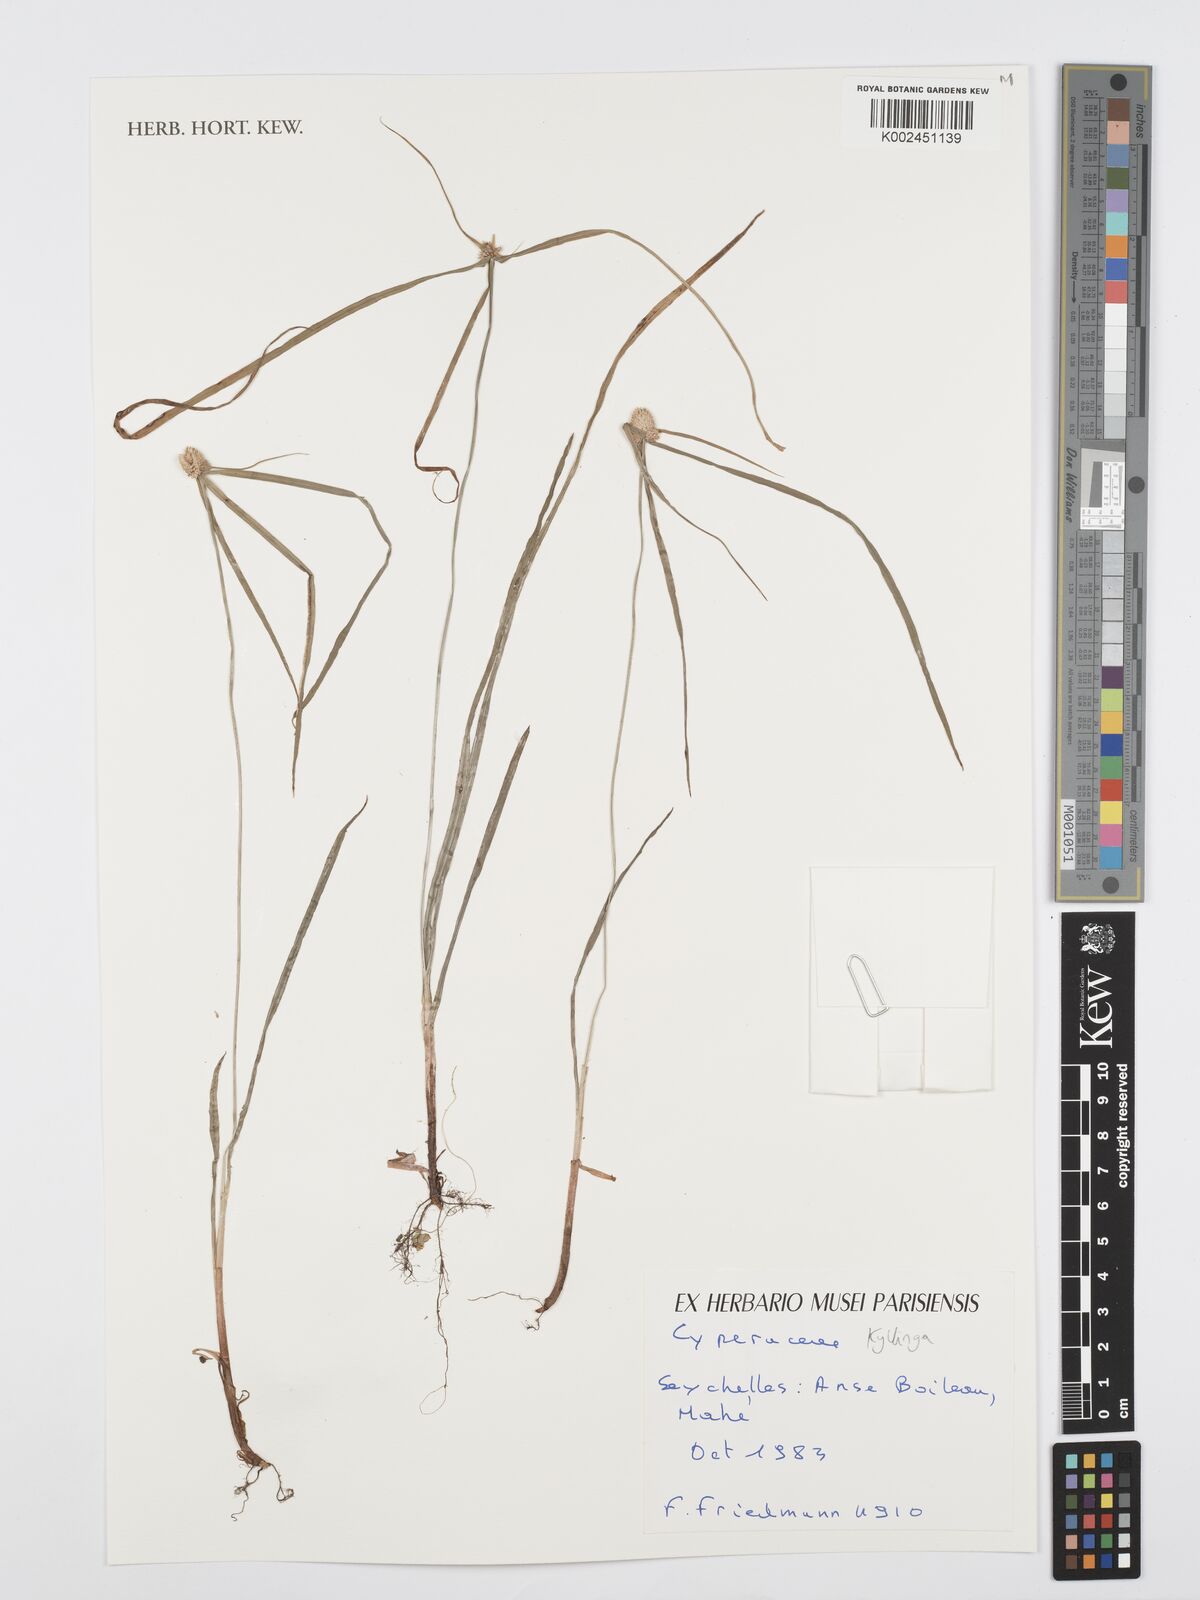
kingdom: Plantae
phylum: Tracheophyta
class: Liliopsida
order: Poales
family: Cyperaceae
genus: Cyperus
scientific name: Cyperus
